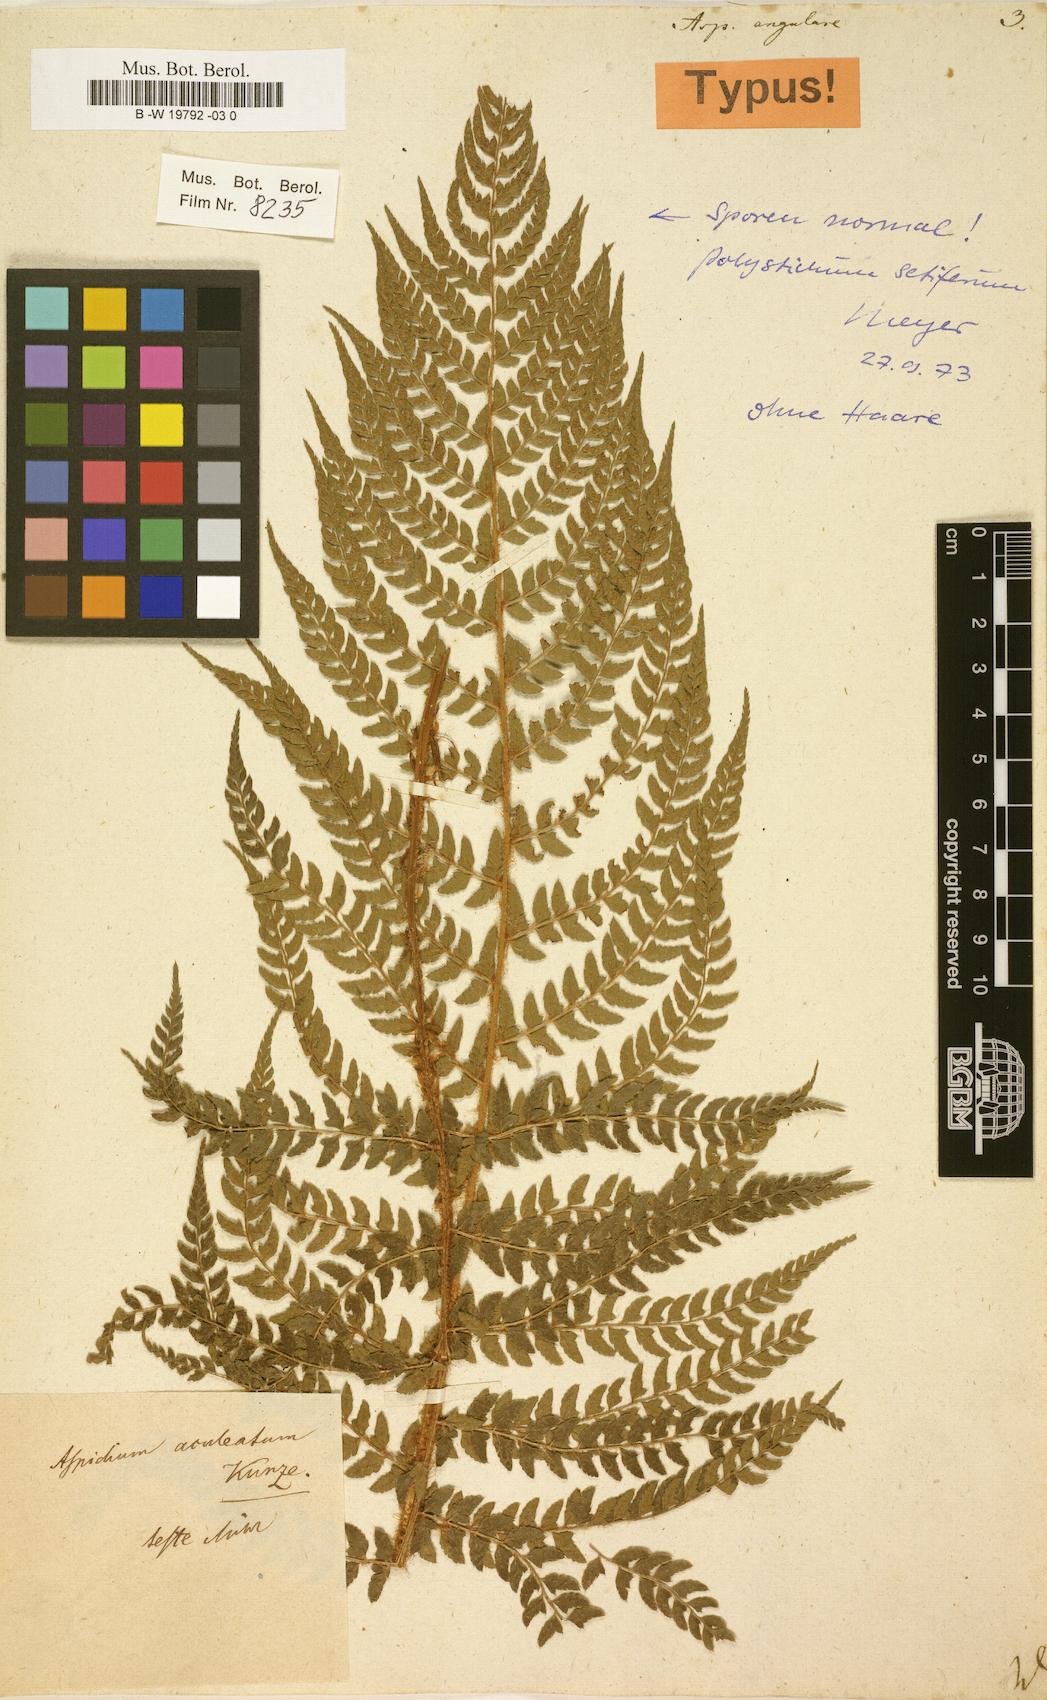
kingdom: Plantae
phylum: Tracheophyta
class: Polypodiopsida
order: Polypodiales
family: Dryopteridaceae
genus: Polystichum
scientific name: Polystichum setiferum
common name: Soft shield-fern
